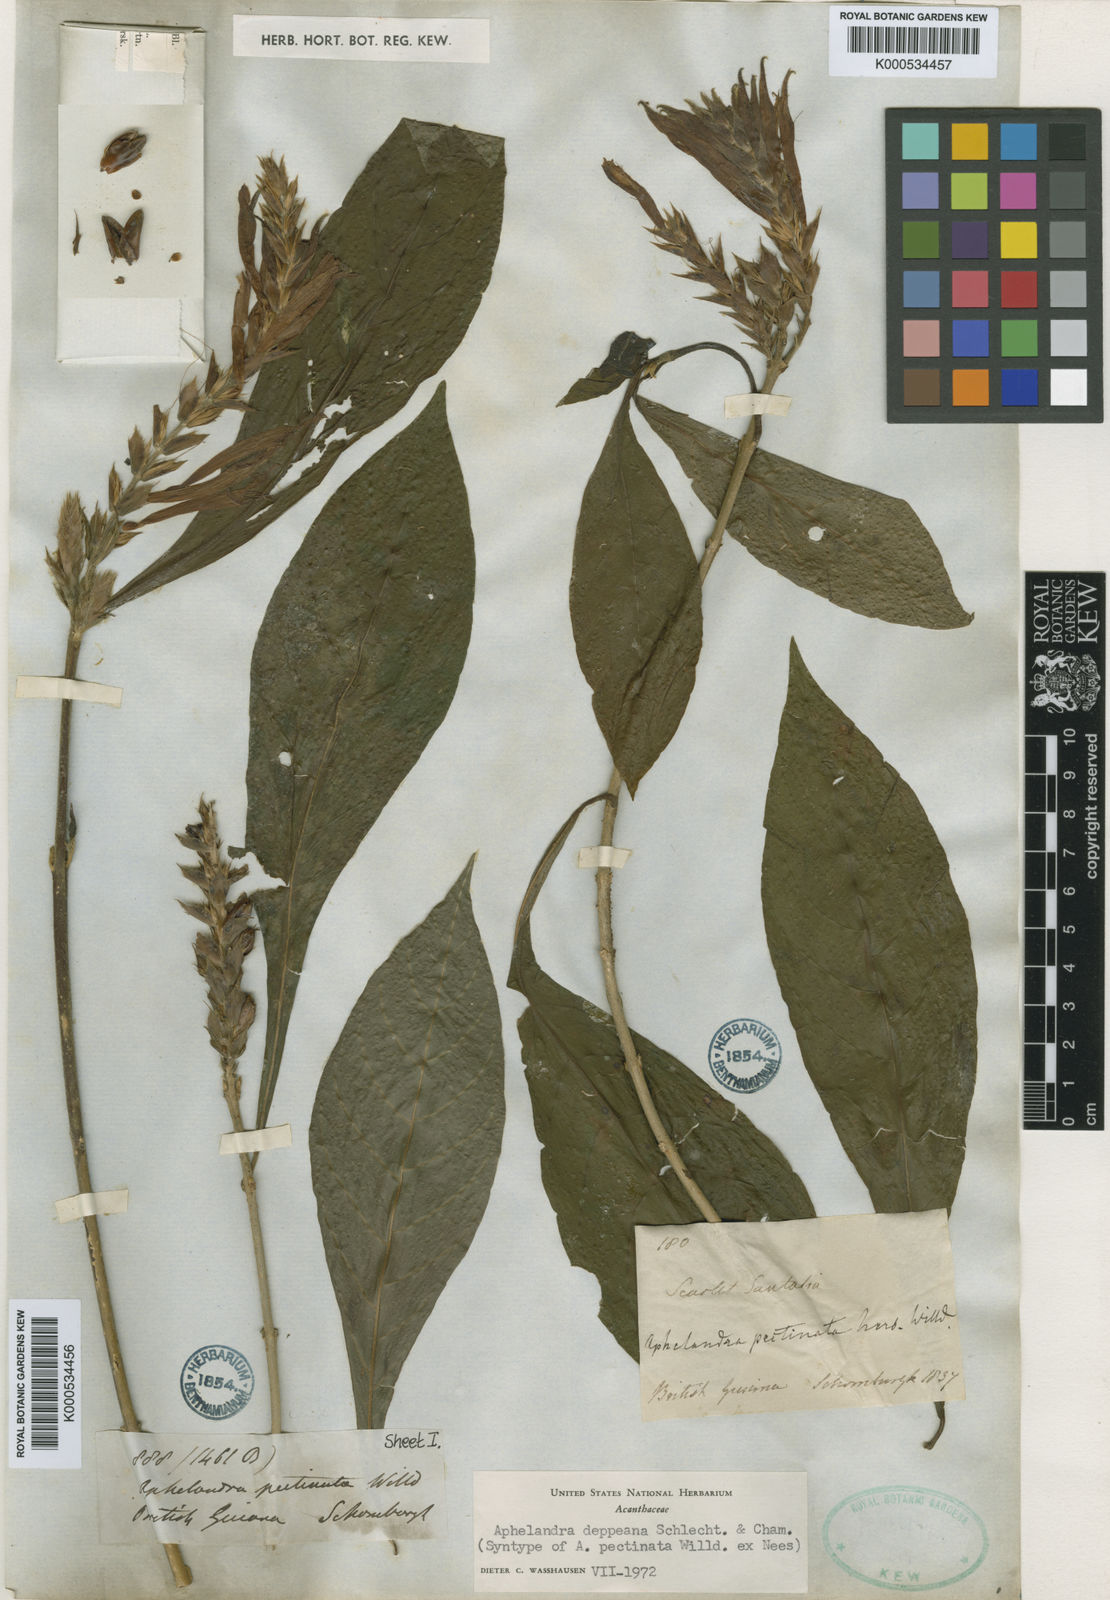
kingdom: Plantae
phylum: Tracheophyta
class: Magnoliopsida
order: Lamiales
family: Acanthaceae
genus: Aphelandra
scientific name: Aphelandra scabra
